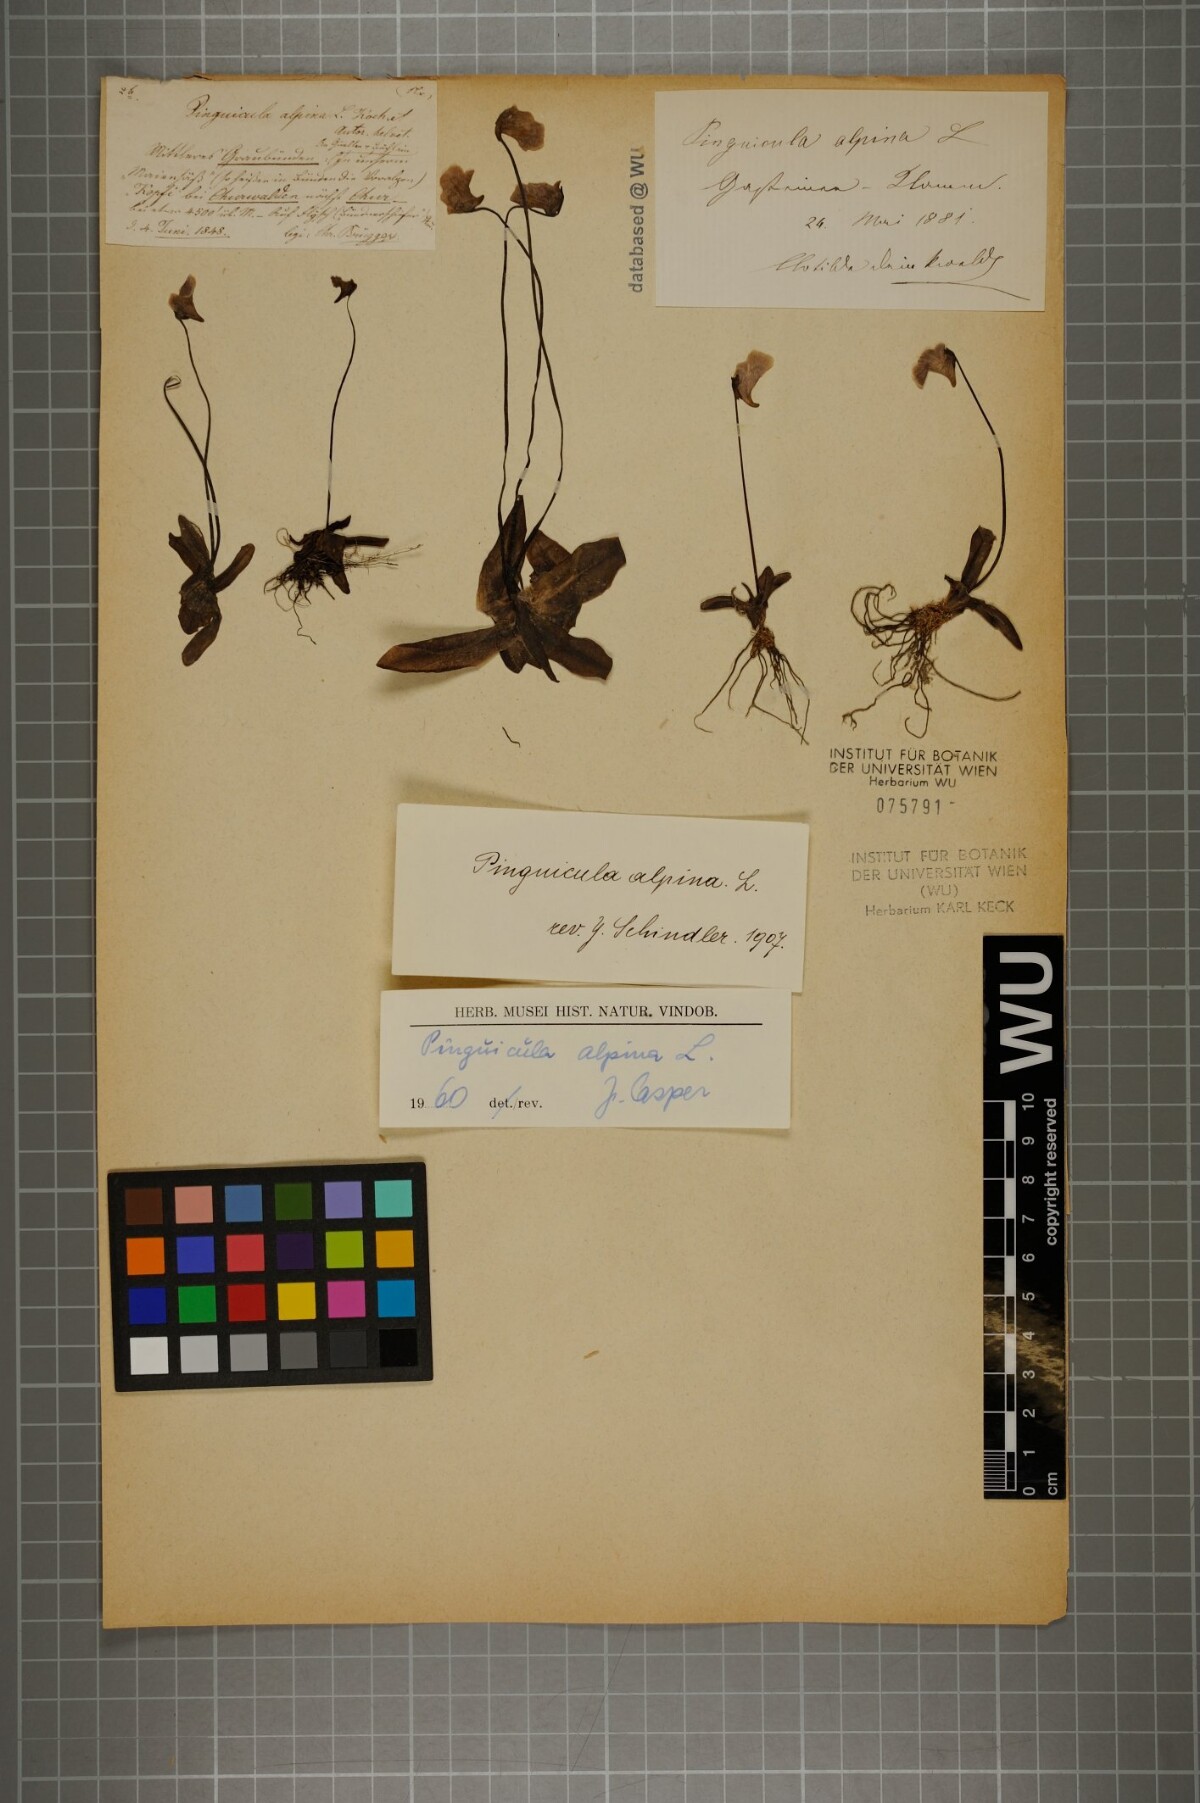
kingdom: Plantae
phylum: Tracheophyta
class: Magnoliopsida
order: Lamiales
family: Lentibulariaceae
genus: Pinguicula
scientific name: Pinguicula alpina
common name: Alpine butterwort
